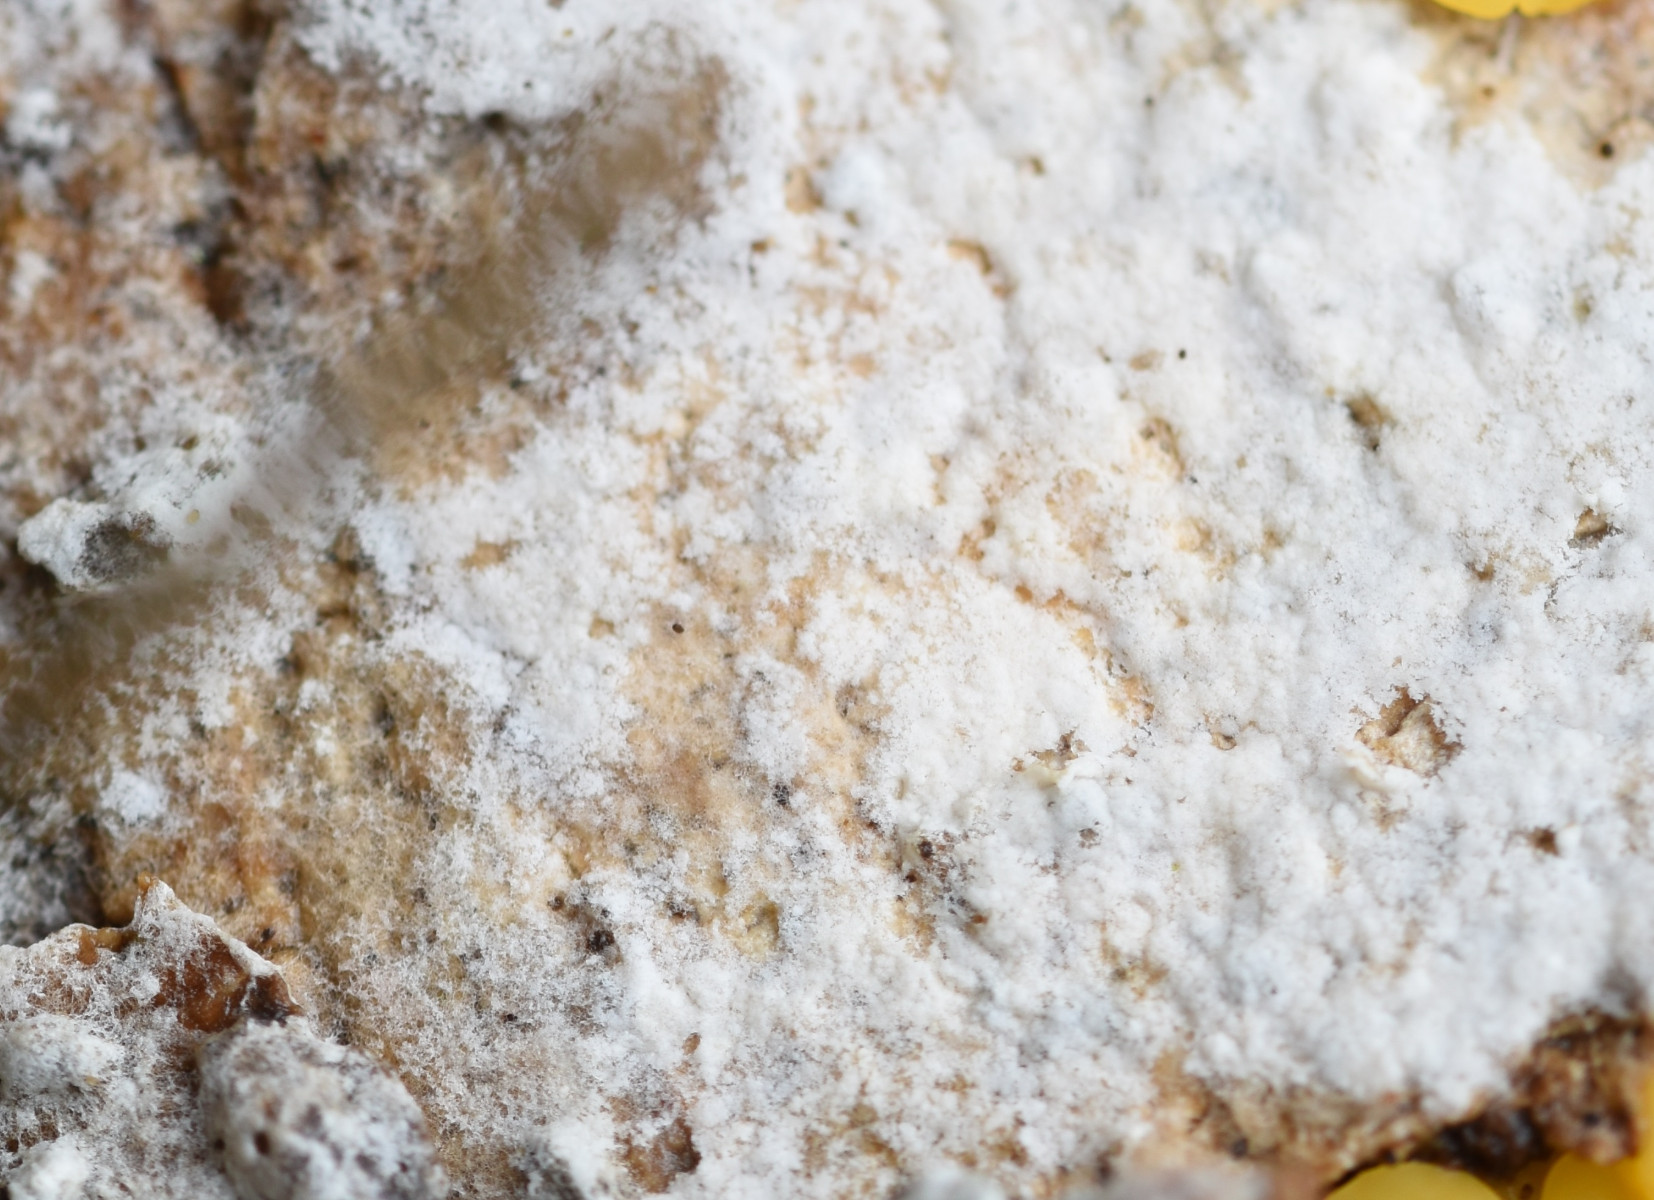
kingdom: Fungi
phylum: Basidiomycota
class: Agaricomycetes
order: Atheliales
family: Atheliaceae
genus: Athelia
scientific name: Athelia epiphylla
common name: almindelig barkhinde
